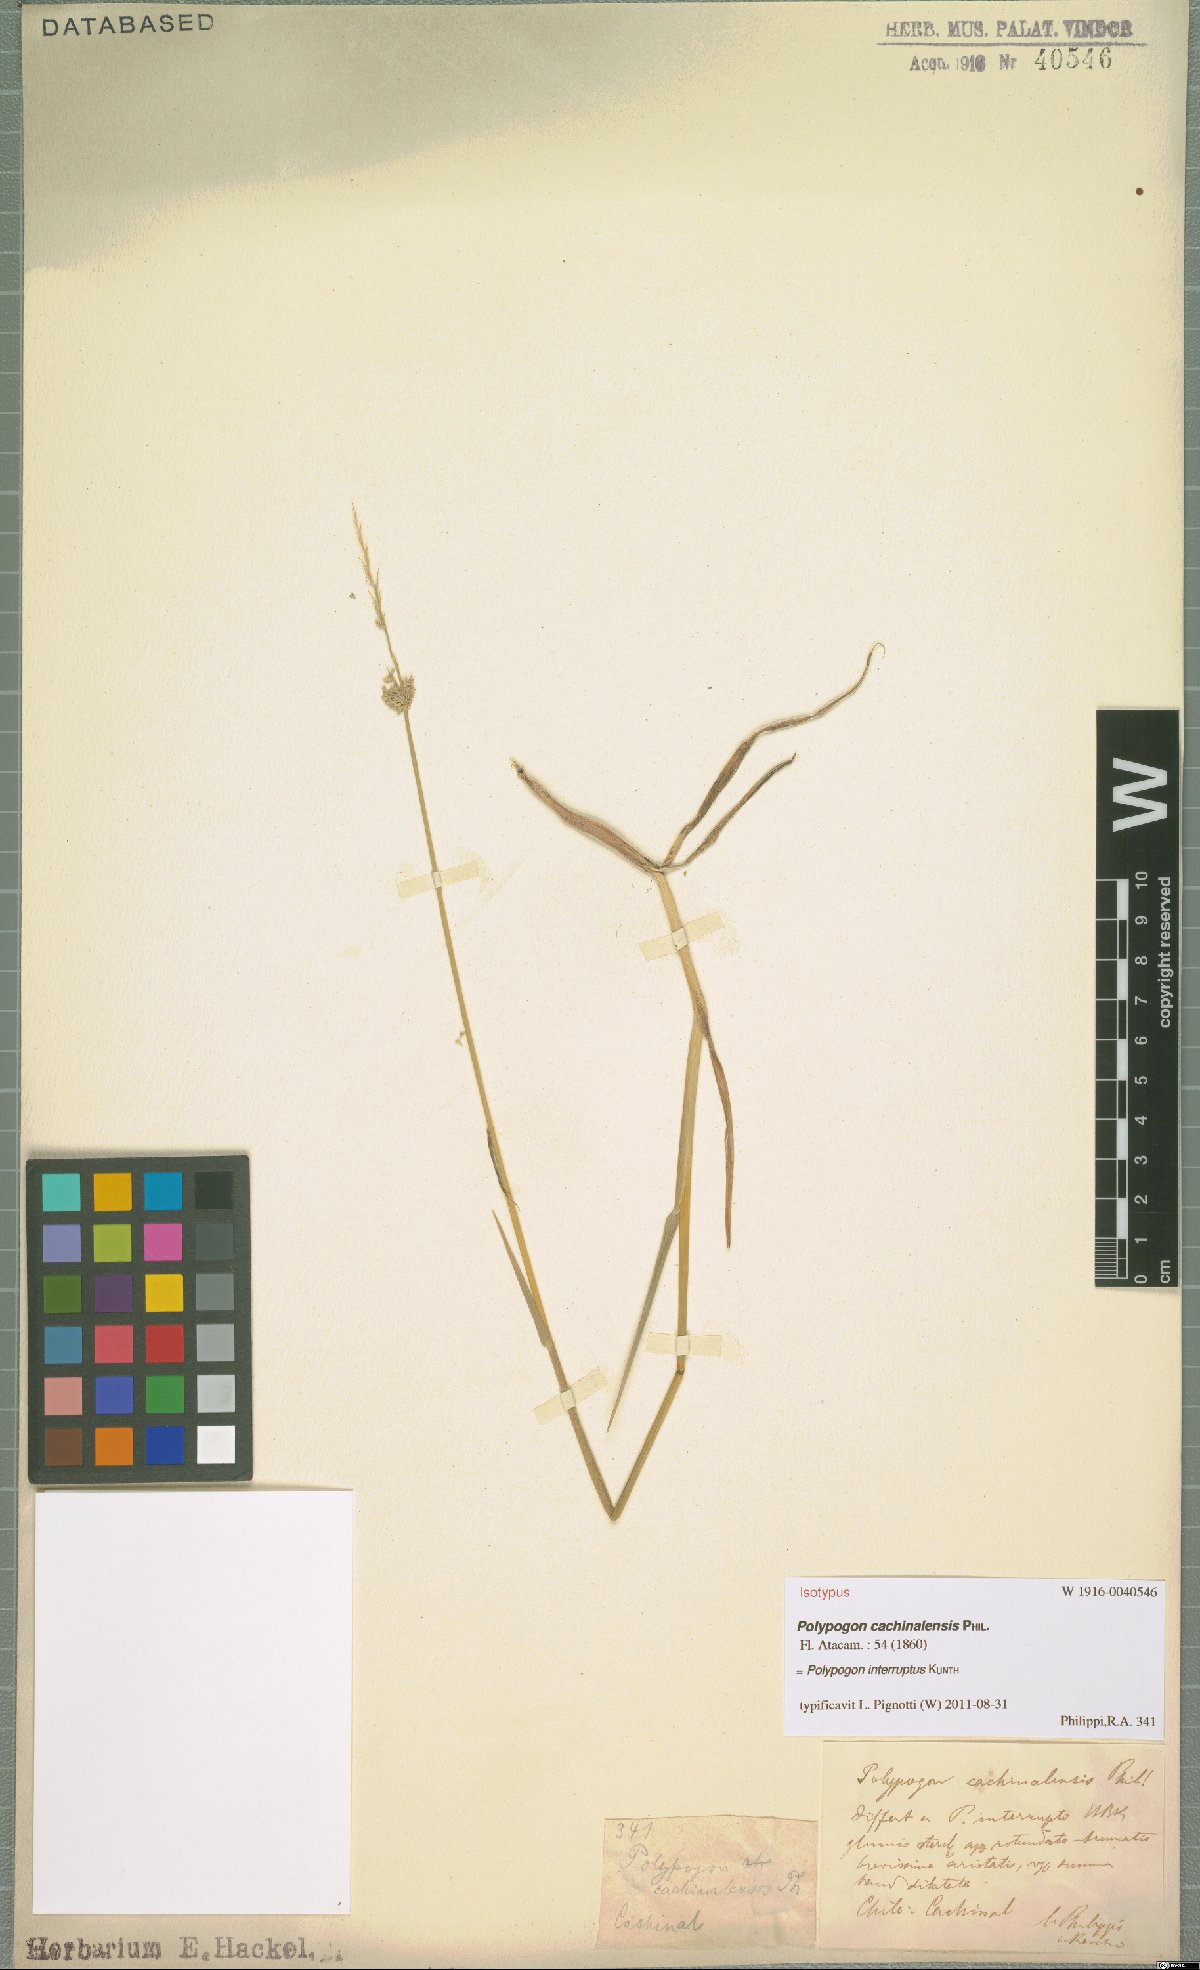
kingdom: Plantae
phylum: Tracheophyta
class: Liliopsida
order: Poales
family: Poaceae
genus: Polypogon
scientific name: Polypogon interruptus
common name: Ditch polypogon
